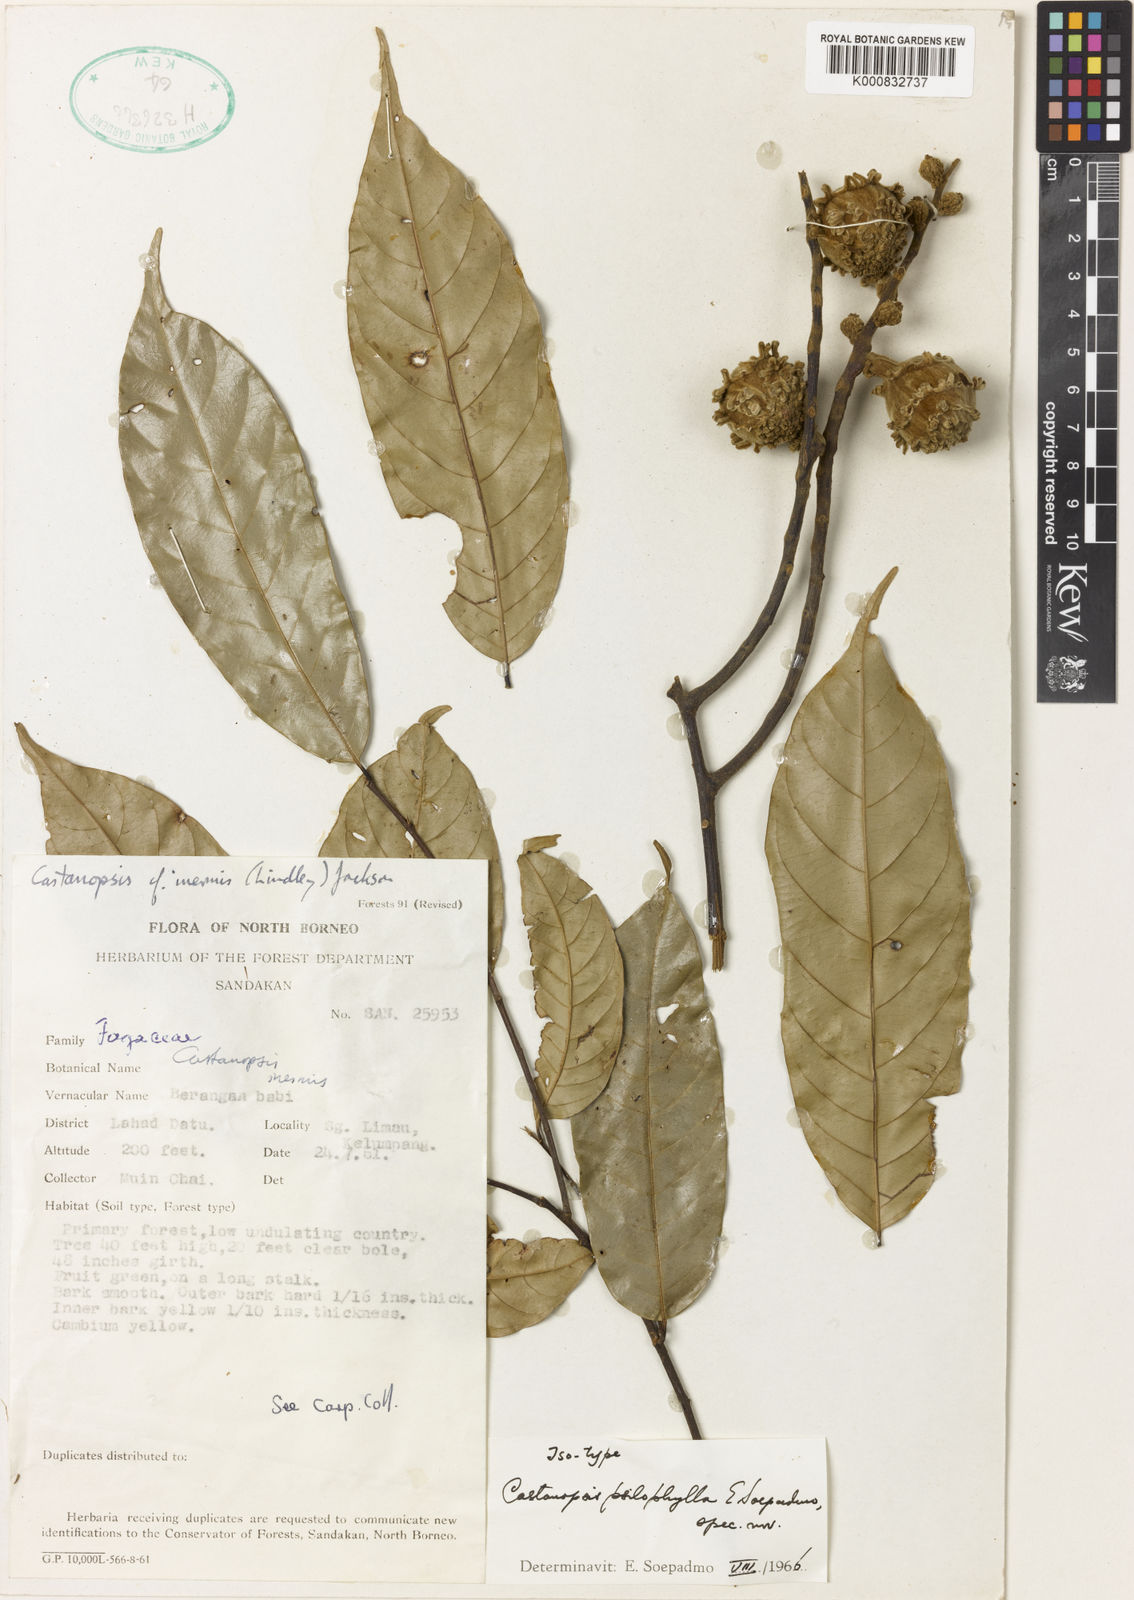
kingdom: Plantae
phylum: Tracheophyta
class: Magnoliopsida
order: Fagales
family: Fagaceae
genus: Castanopsis
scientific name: Castanopsis psilophylla
